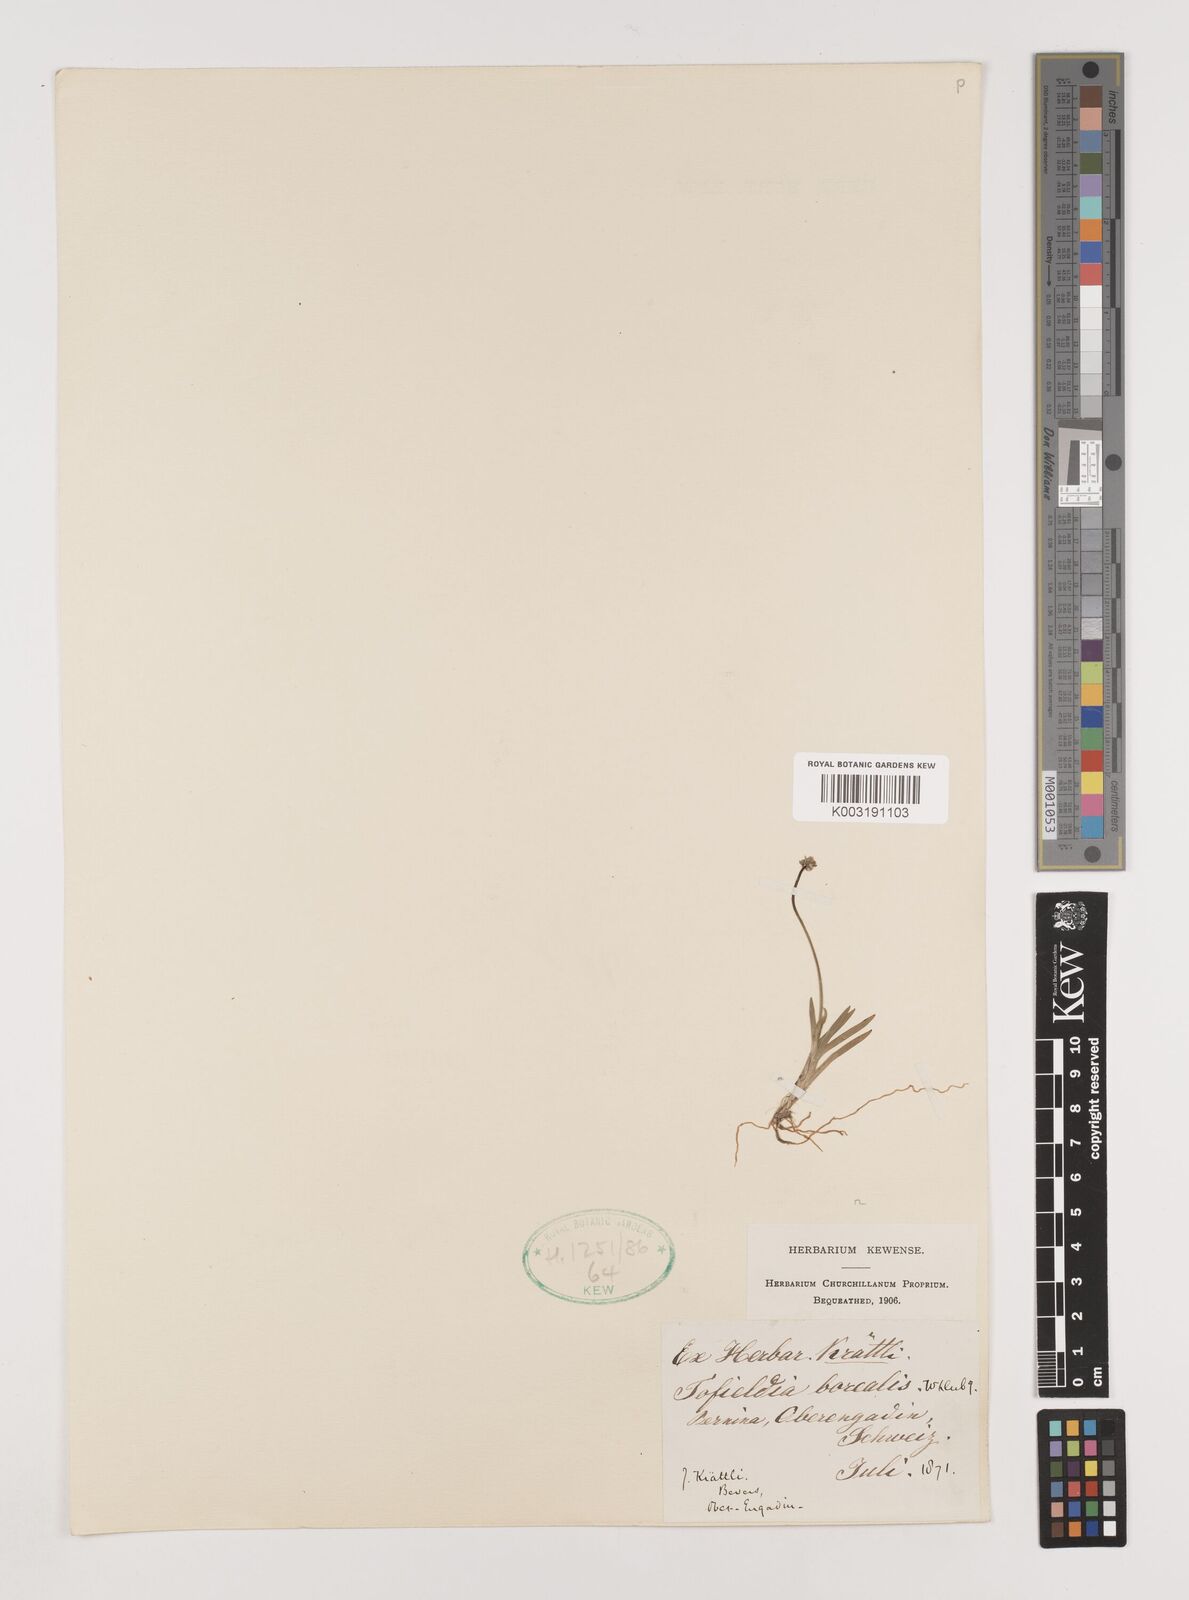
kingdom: Plantae
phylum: Tracheophyta
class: Liliopsida
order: Alismatales
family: Tofieldiaceae
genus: Tofieldia
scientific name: Tofieldia pusilla
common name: Scottish false asphodel
